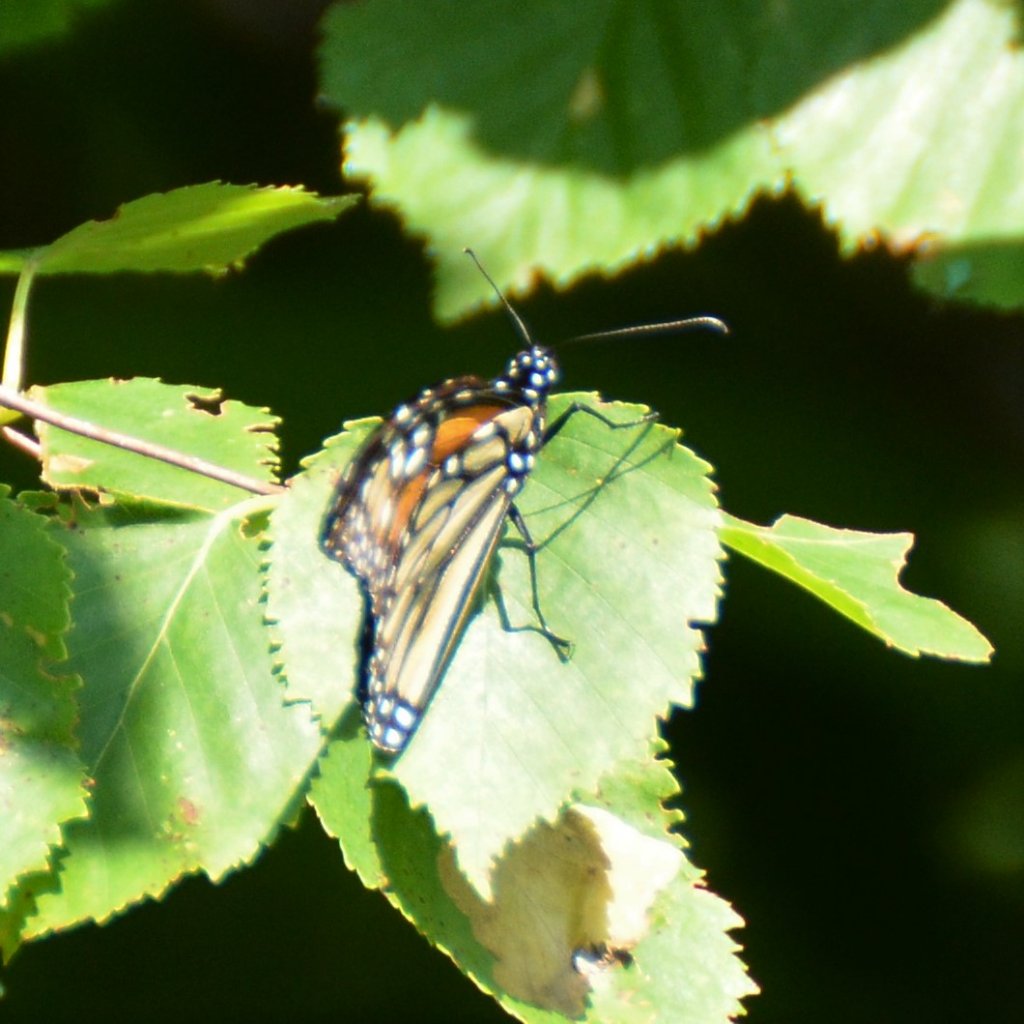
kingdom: Animalia
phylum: Arthropoda
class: Insecta
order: Lepidoptera
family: Nymphalidae
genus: Danaus
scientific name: Danaus plexippus
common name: Monarch
